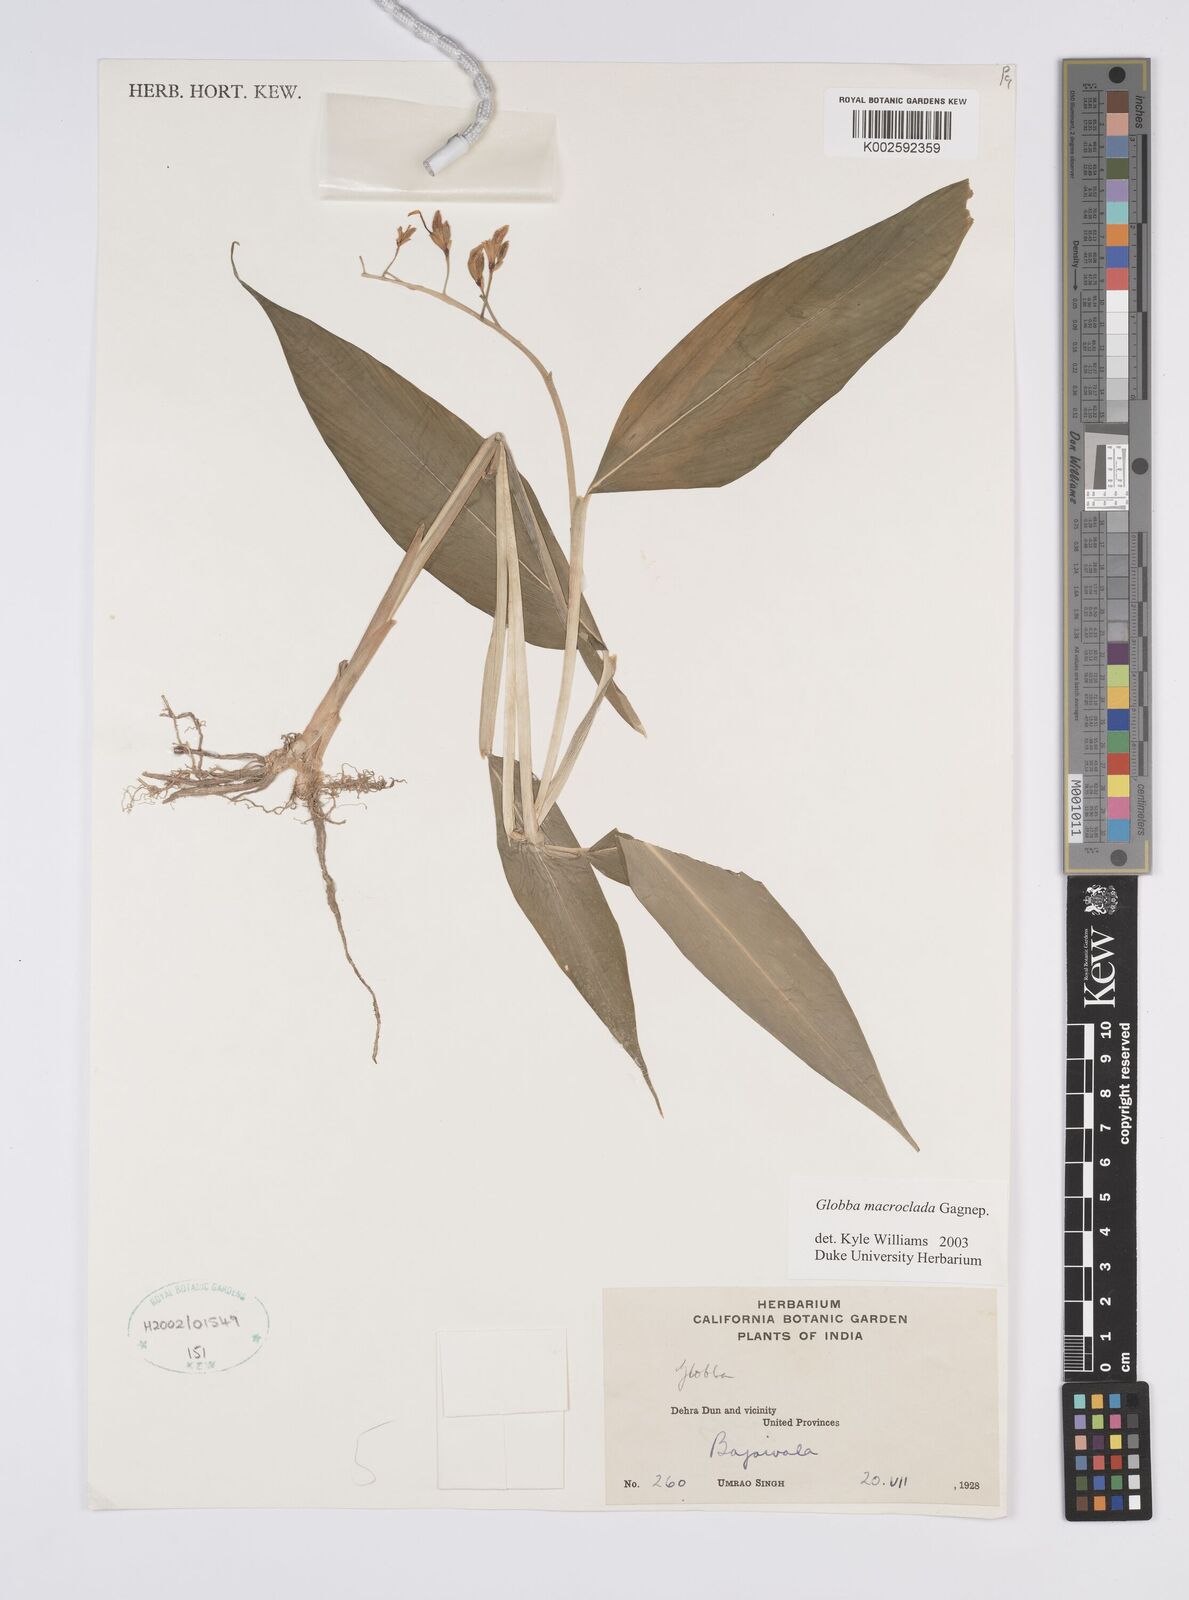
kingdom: Plantae
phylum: Tracheophyta
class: Liliopsida
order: Zingiberales
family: Zingiberaceae
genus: Globba
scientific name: Globba macroclada
